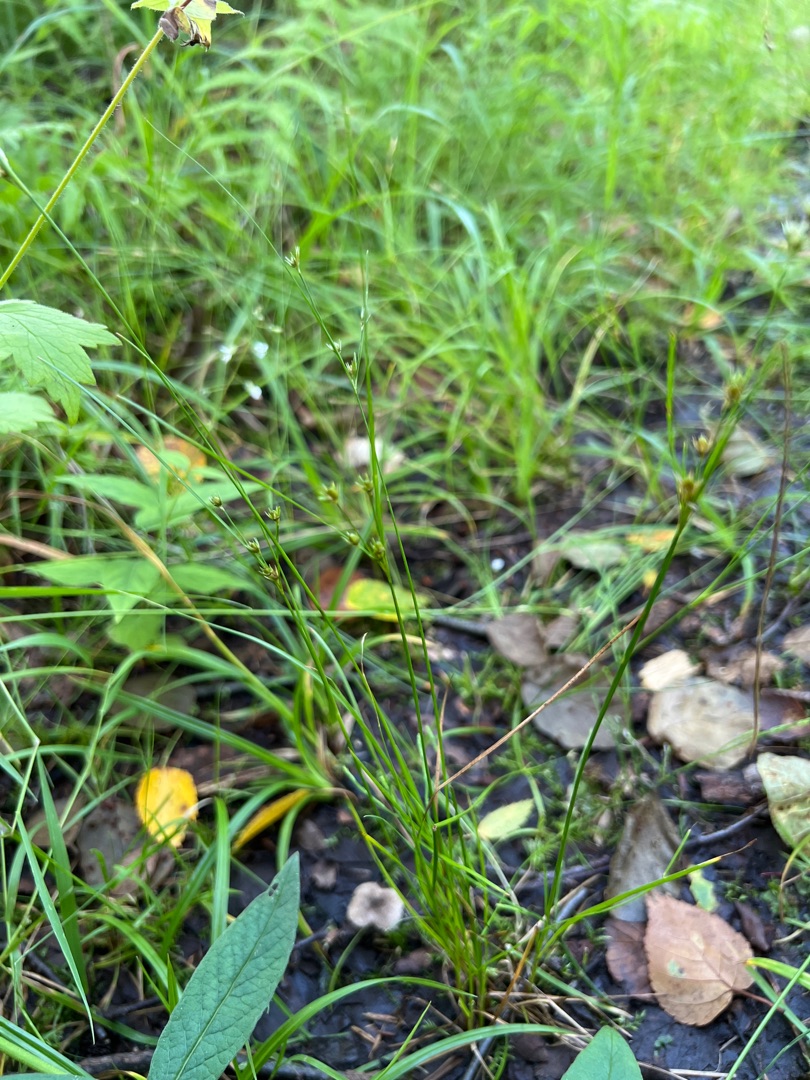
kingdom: Plantae
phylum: Tracheophyta
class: Liliopsida
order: Poales
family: Juncaceae
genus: Juncus
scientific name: Juncus tenuis
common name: Tue-siv
